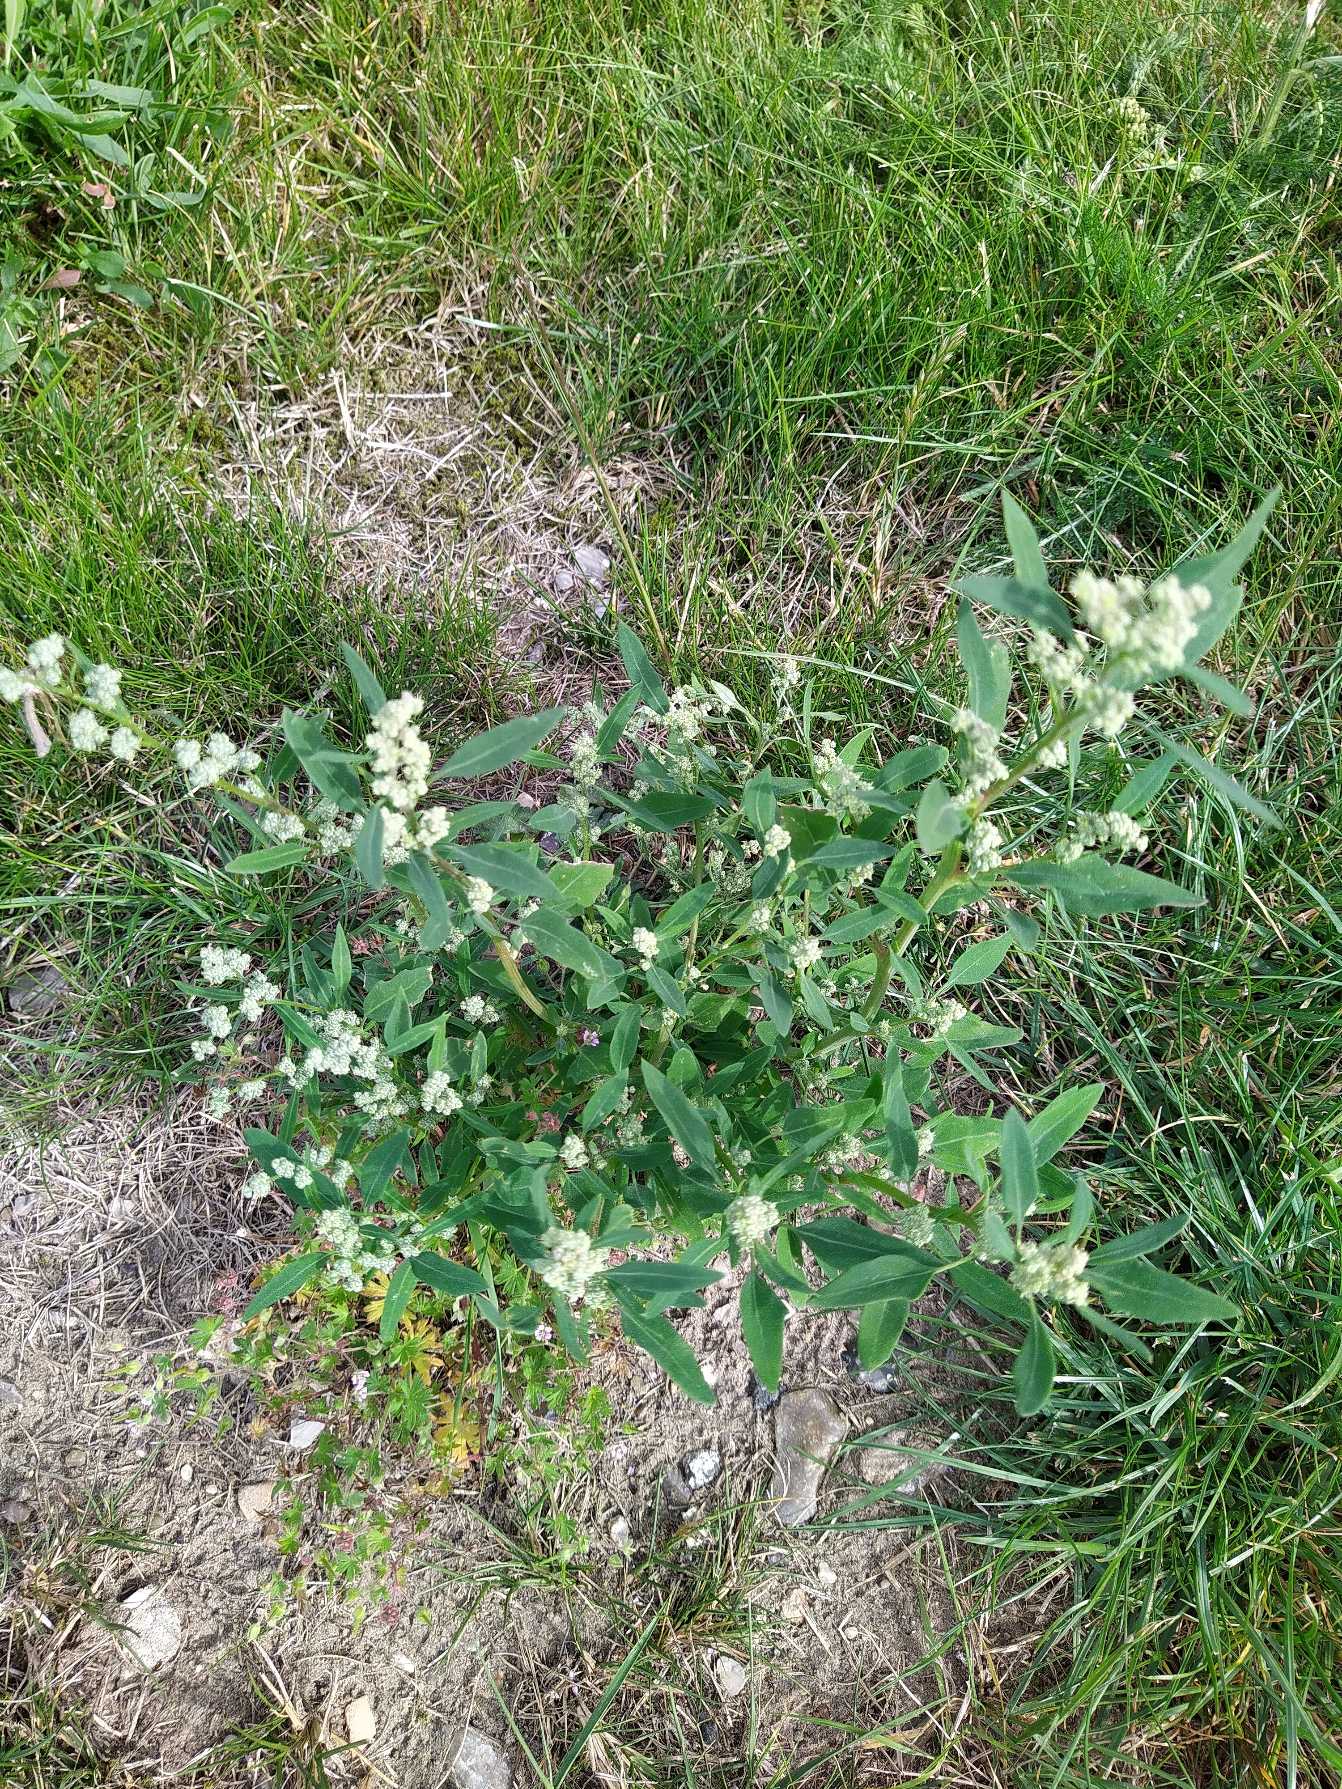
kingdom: Plantae
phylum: Tracheophyta
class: Magnoliopsida
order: Caryophyllales
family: Amaranthaceae
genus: Chenopodium
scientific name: Chenopodium pratericola
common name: Finbladet gåsefod
